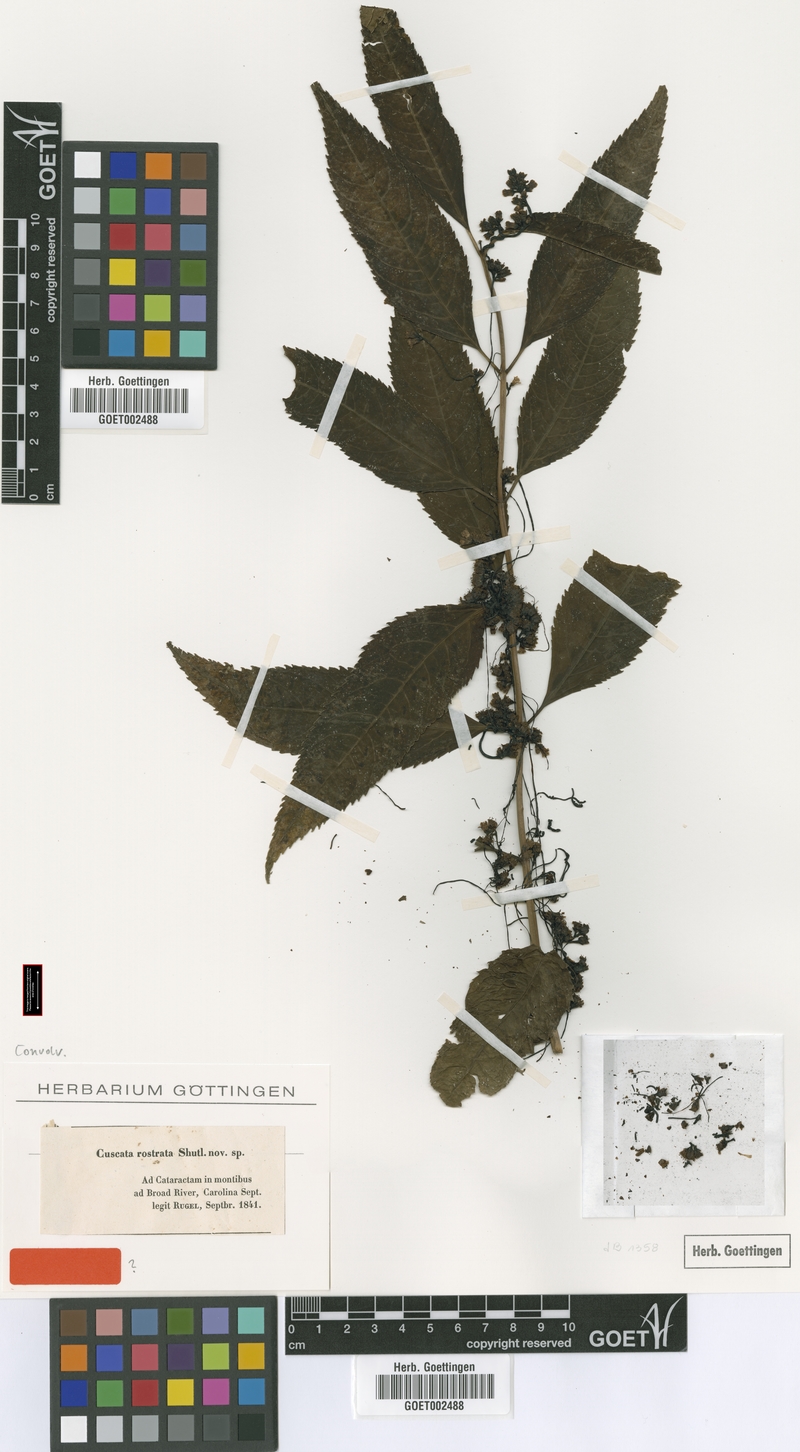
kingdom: Plantae
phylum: Tracheophyta
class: Magnoliopsida
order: Solanales
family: Convolvulaceae
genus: Cuscuta
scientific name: Cuscuta rostrata
